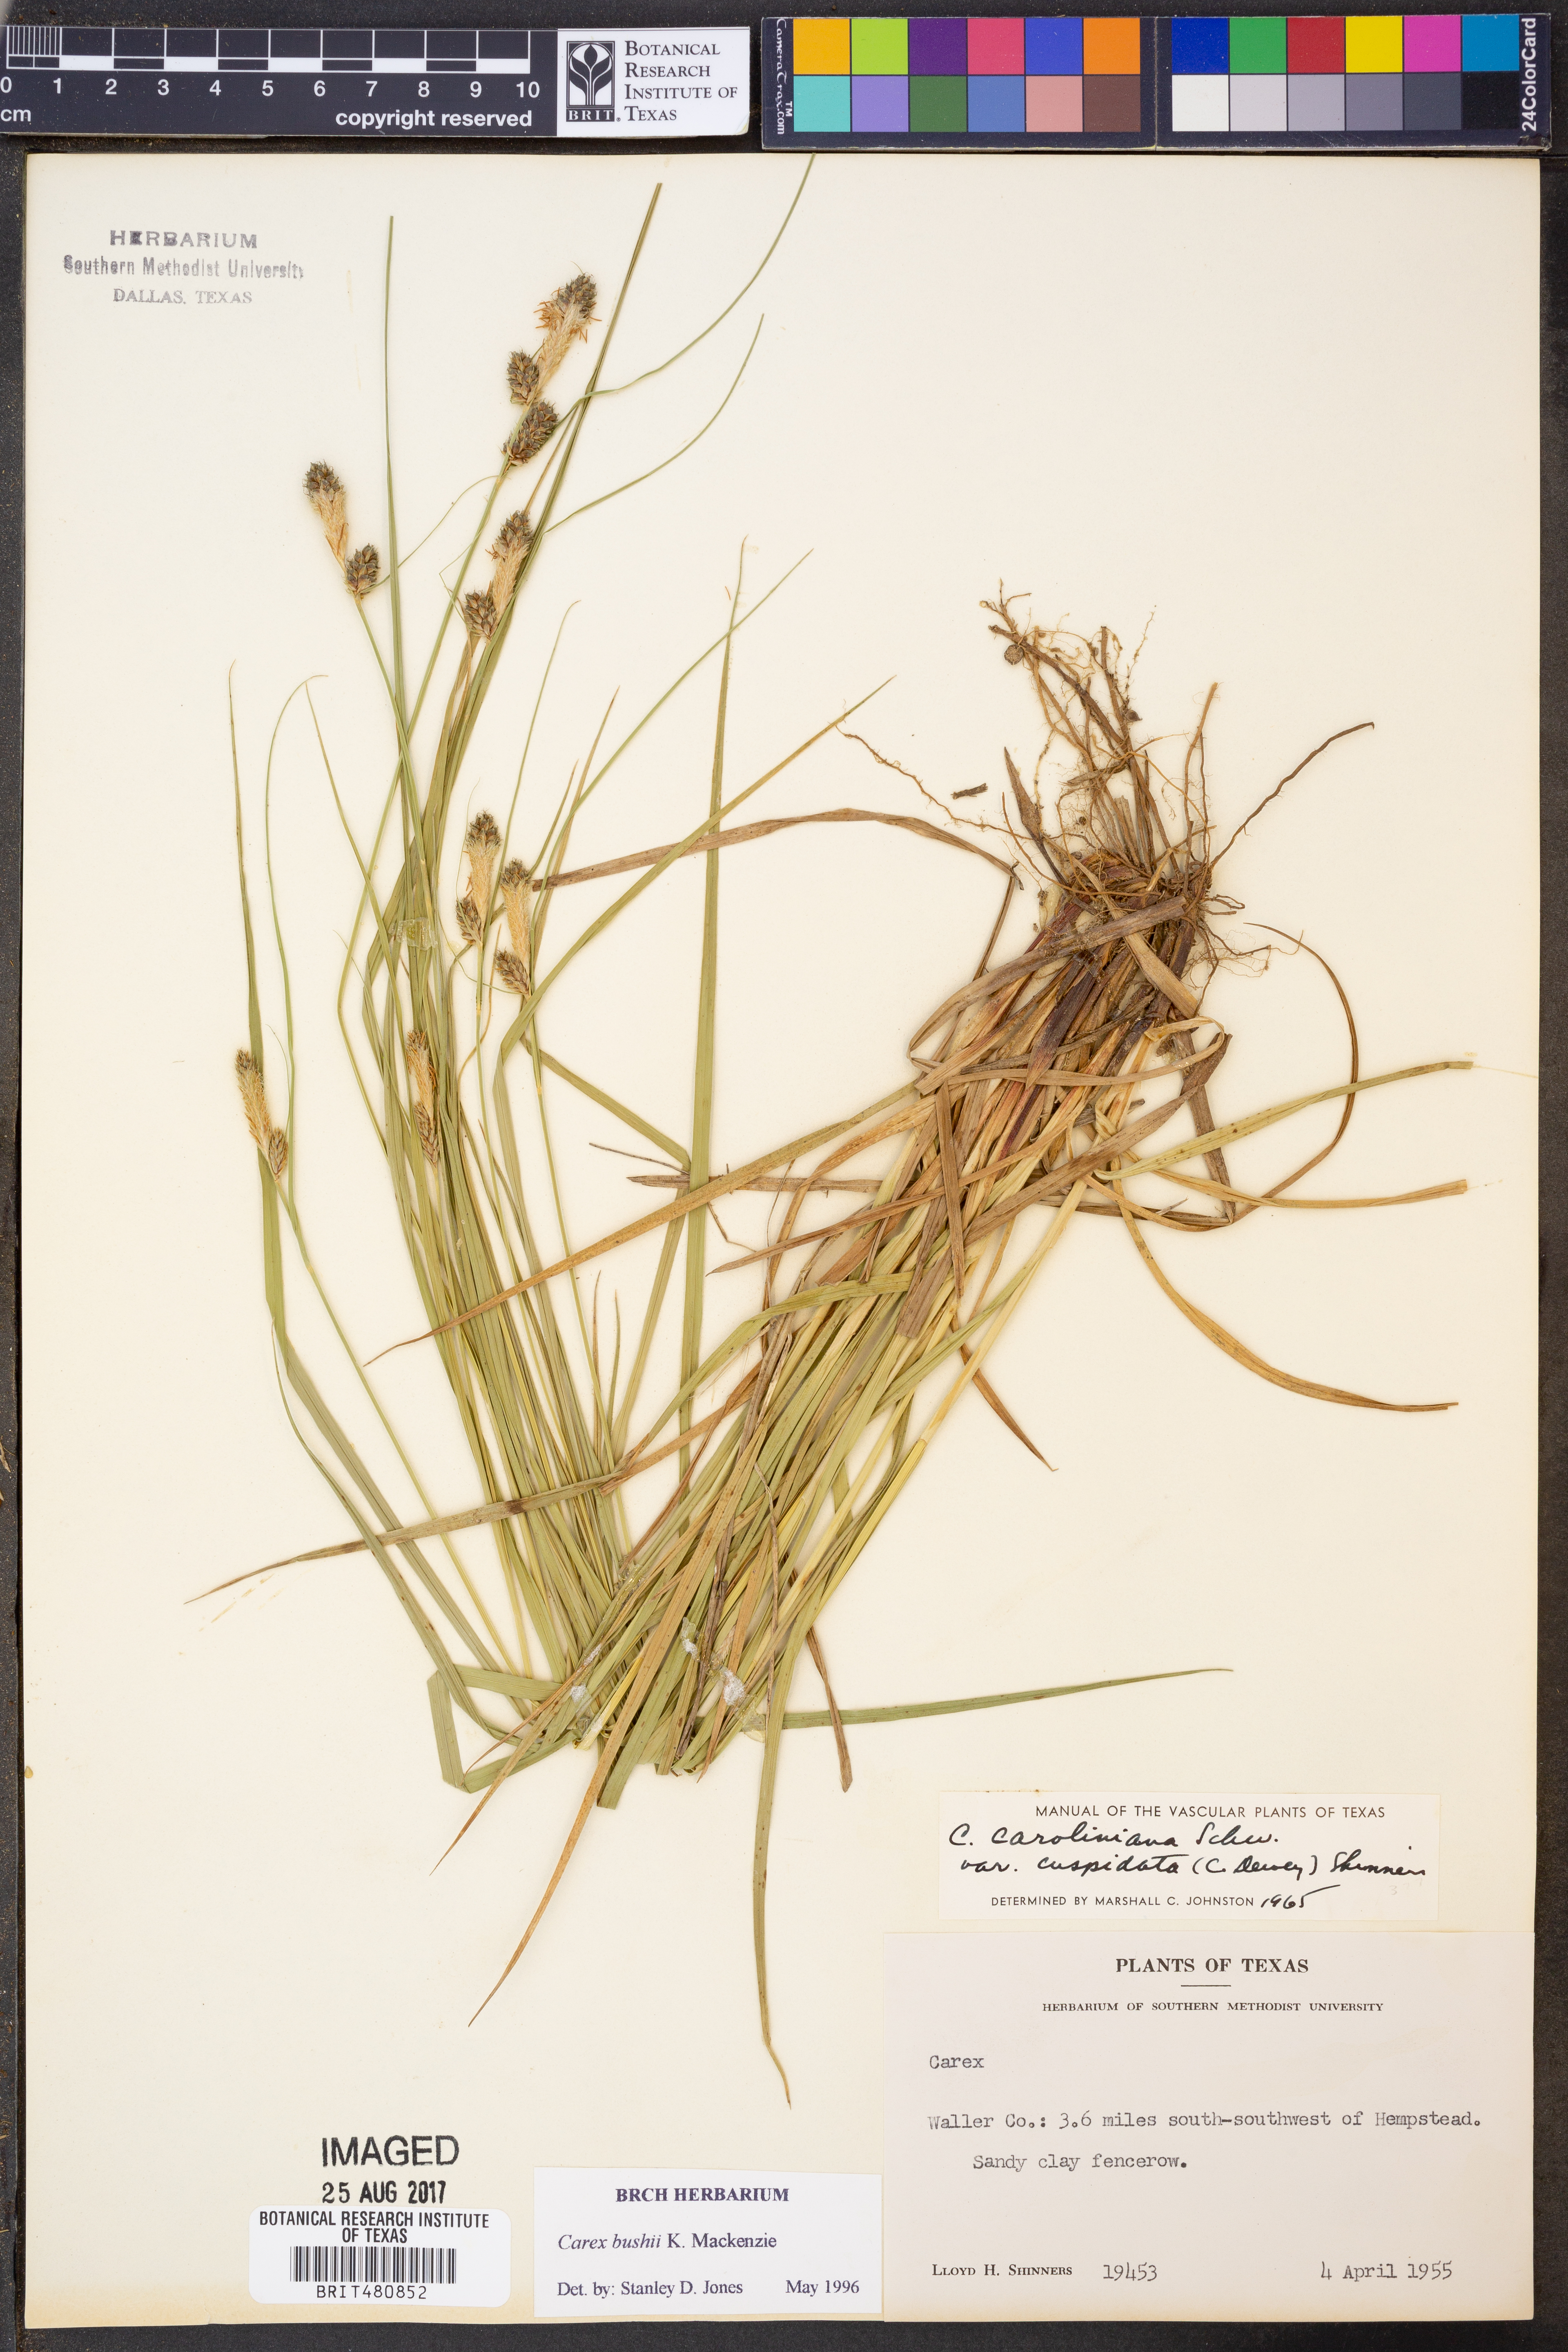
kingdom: Plantae
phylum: Tracheophyta
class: Liliopsida
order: Poales
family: Cyperaceae
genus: Carex
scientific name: Carex bushii
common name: Bush's sedge
